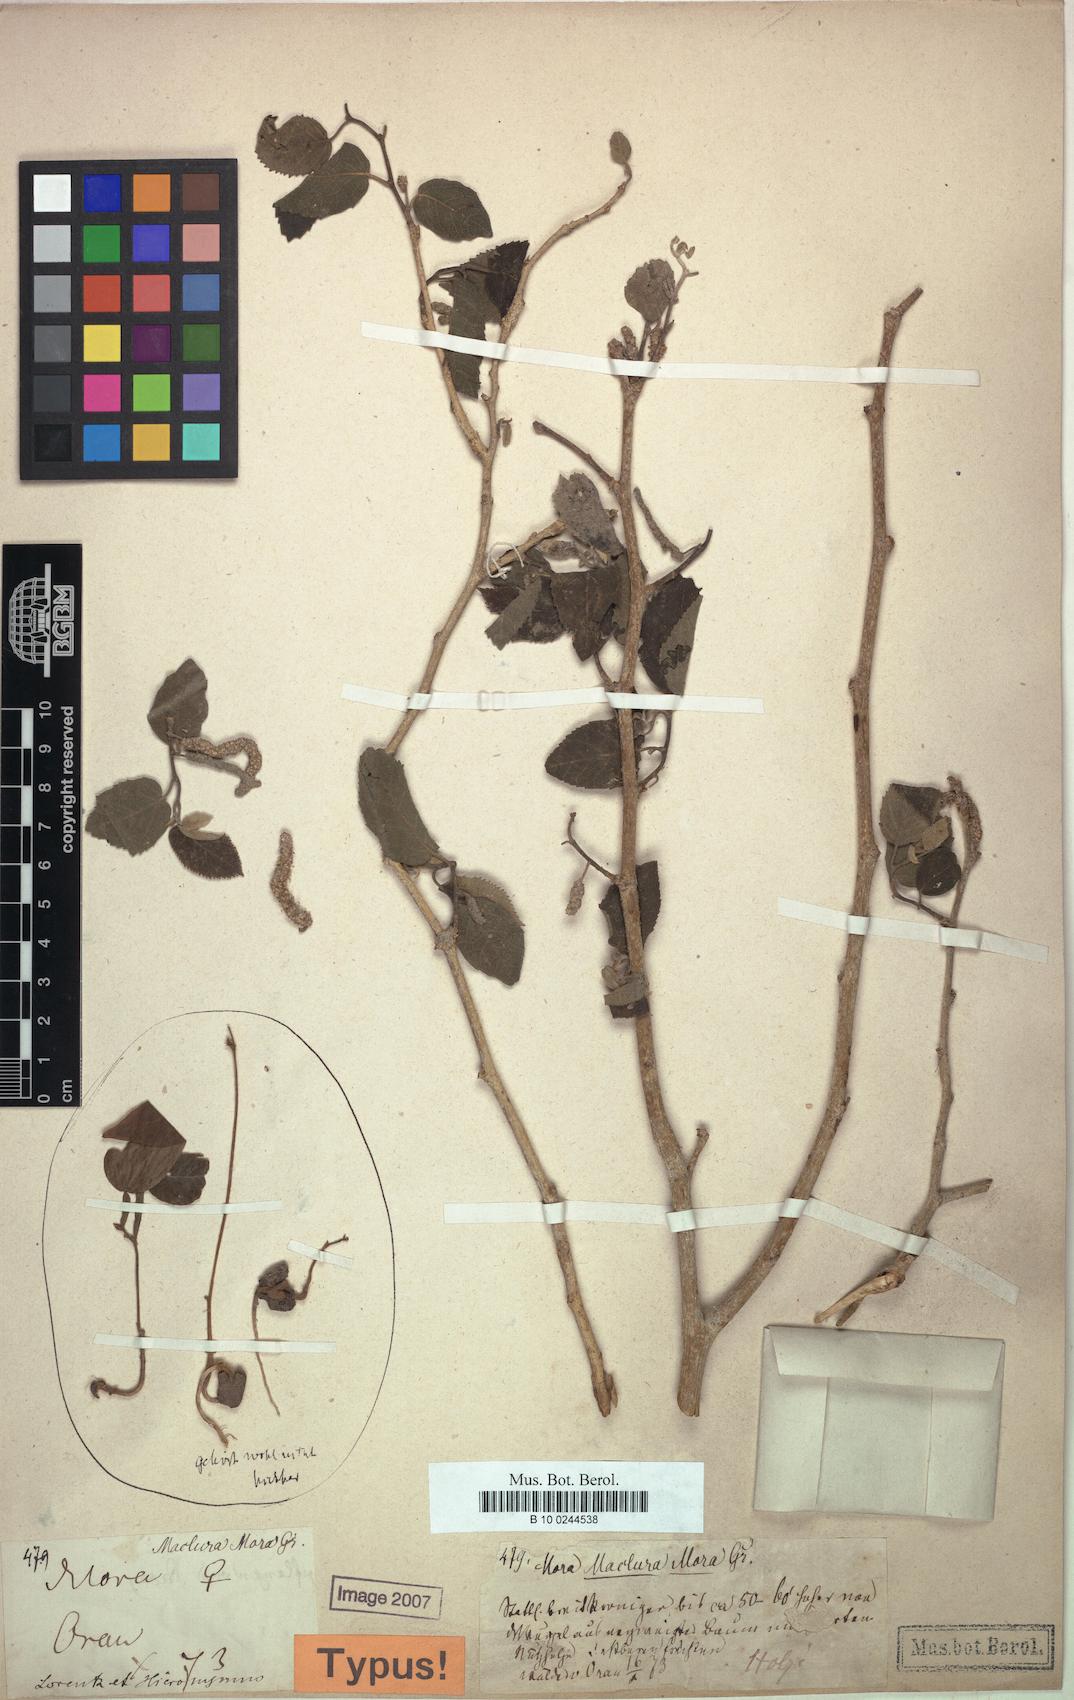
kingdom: Plantae
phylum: Tracheophyta
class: Magnoliopsida
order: Rosales
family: Moraceae
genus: Maclura
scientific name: Maclura tinctoria
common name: Old fustic
